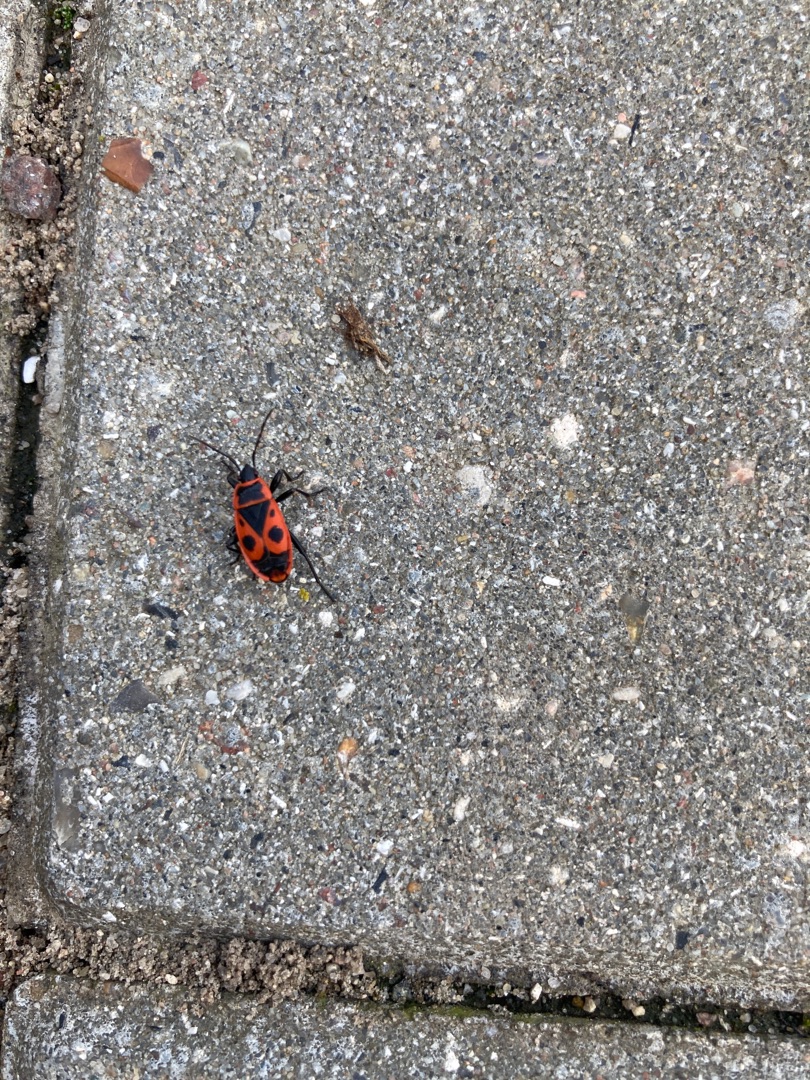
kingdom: Animalia
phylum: Arthropoda
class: Insecta
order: Hemiptera
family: Pyrrhocoridae
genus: Pyrrhocoris
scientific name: Pyrrhocoris apterus
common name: Ildtæge
